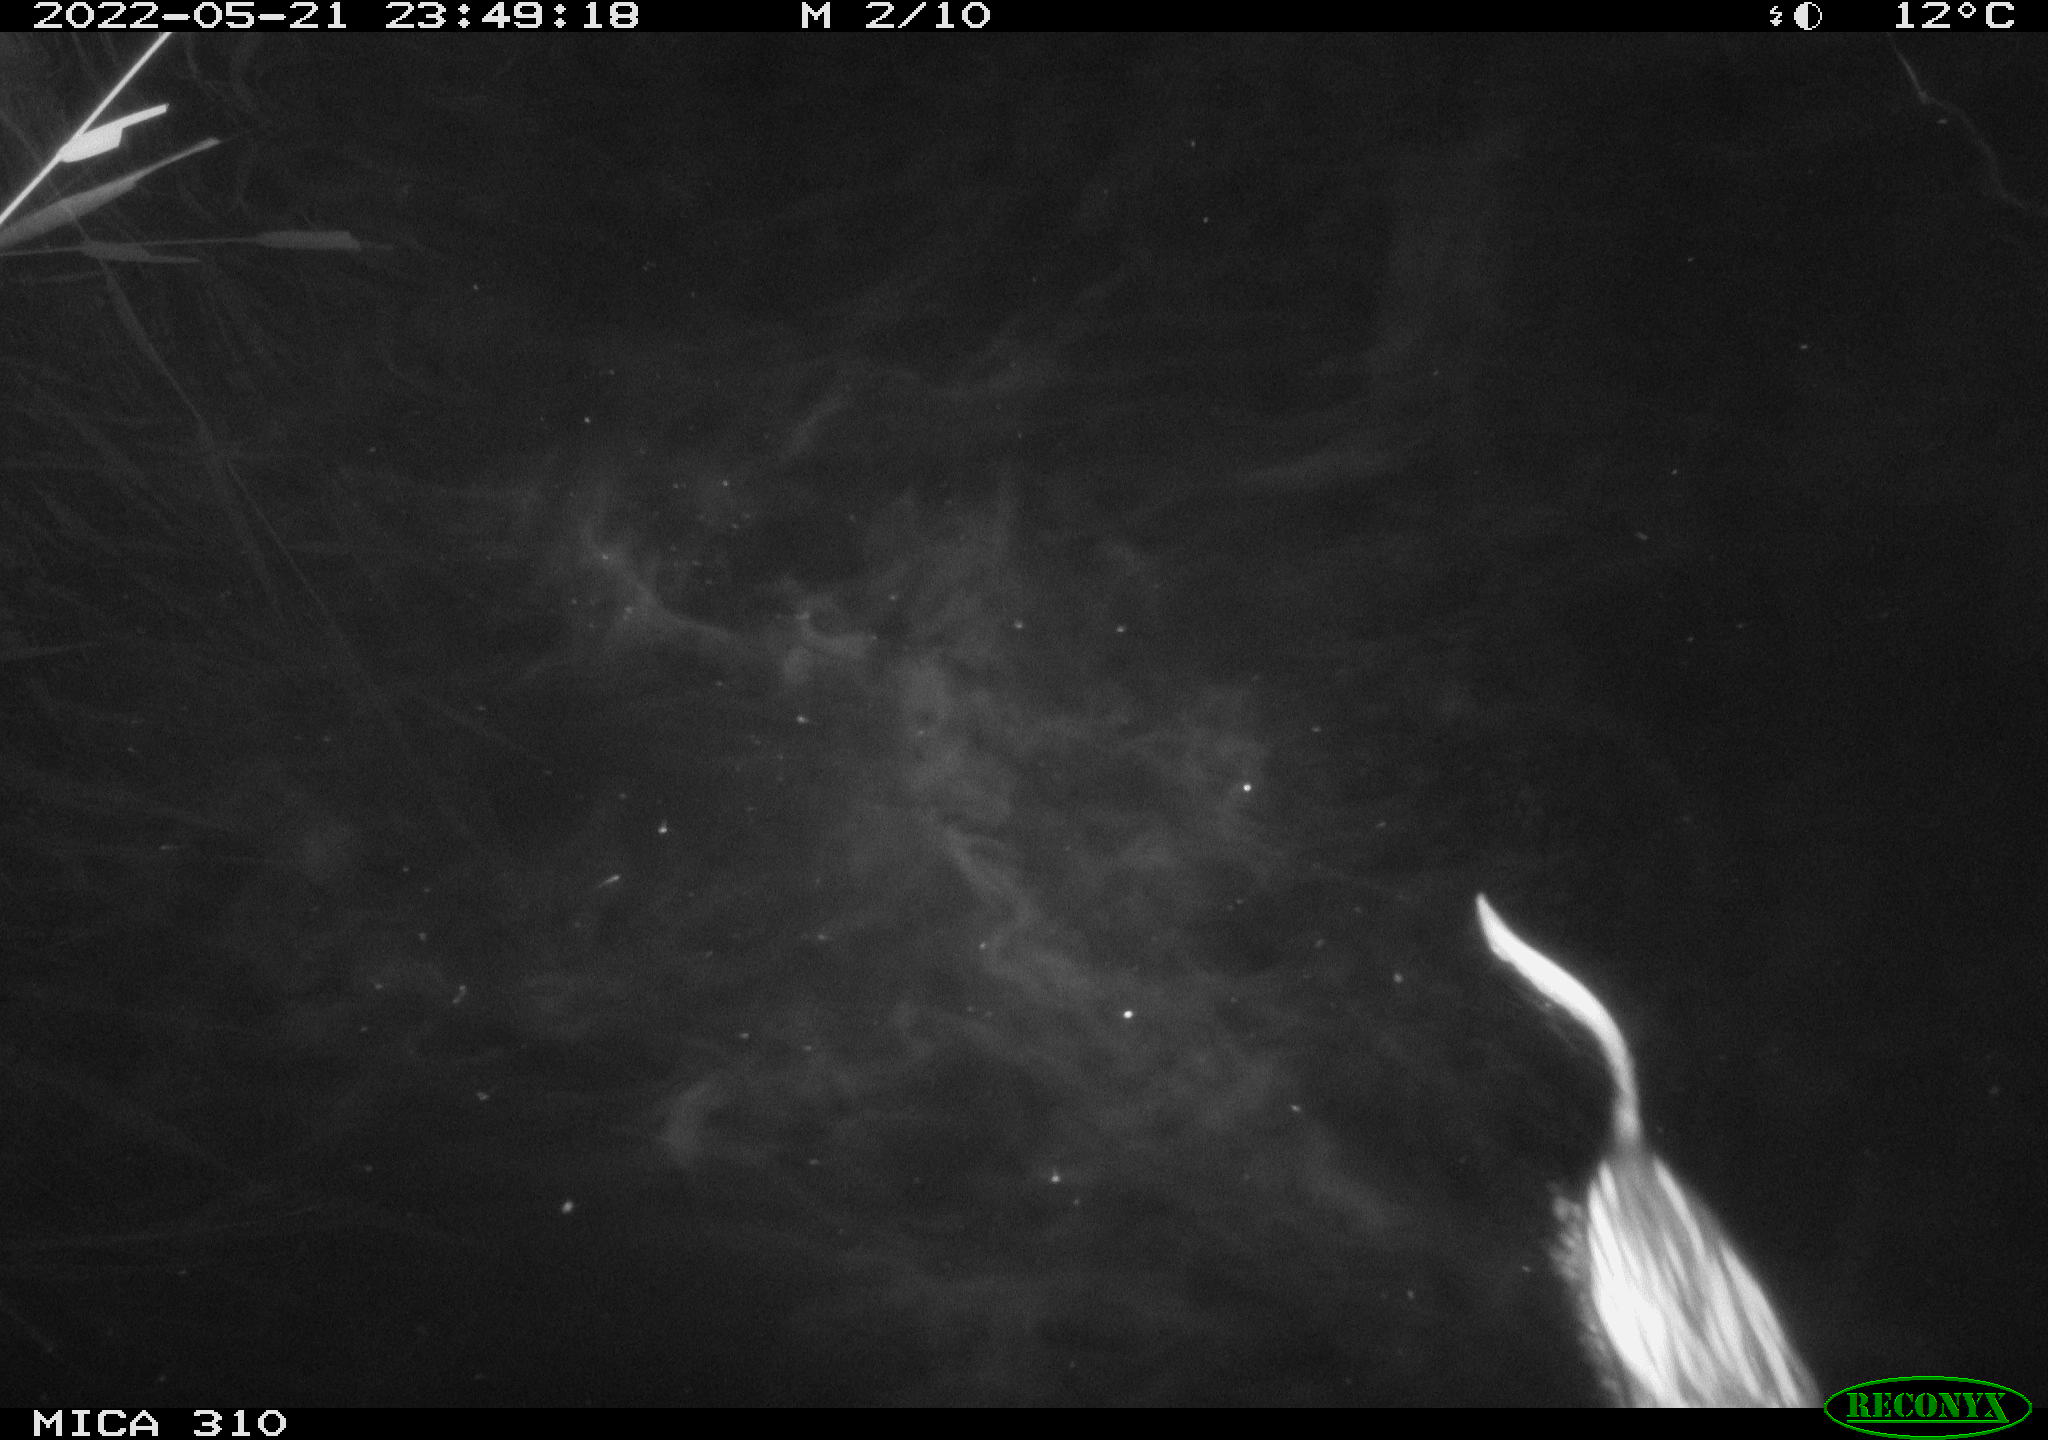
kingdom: Animalia
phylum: Chordata
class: Mammalia
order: Rodentia
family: Cricetidae
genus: Ondatra
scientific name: Ondatra zibethicus
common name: Muskrat
